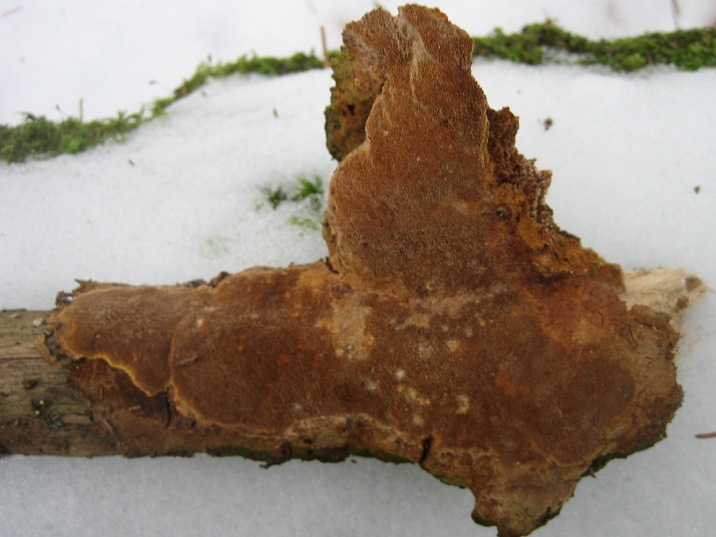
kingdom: Fungi
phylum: Basidiomycota
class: Agaricomycetes
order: Hymenochaetales
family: Hymenochaetaceae
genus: Fuscoporia
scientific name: Fuscoporia ferrea
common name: skorpe-ildporesvamp
